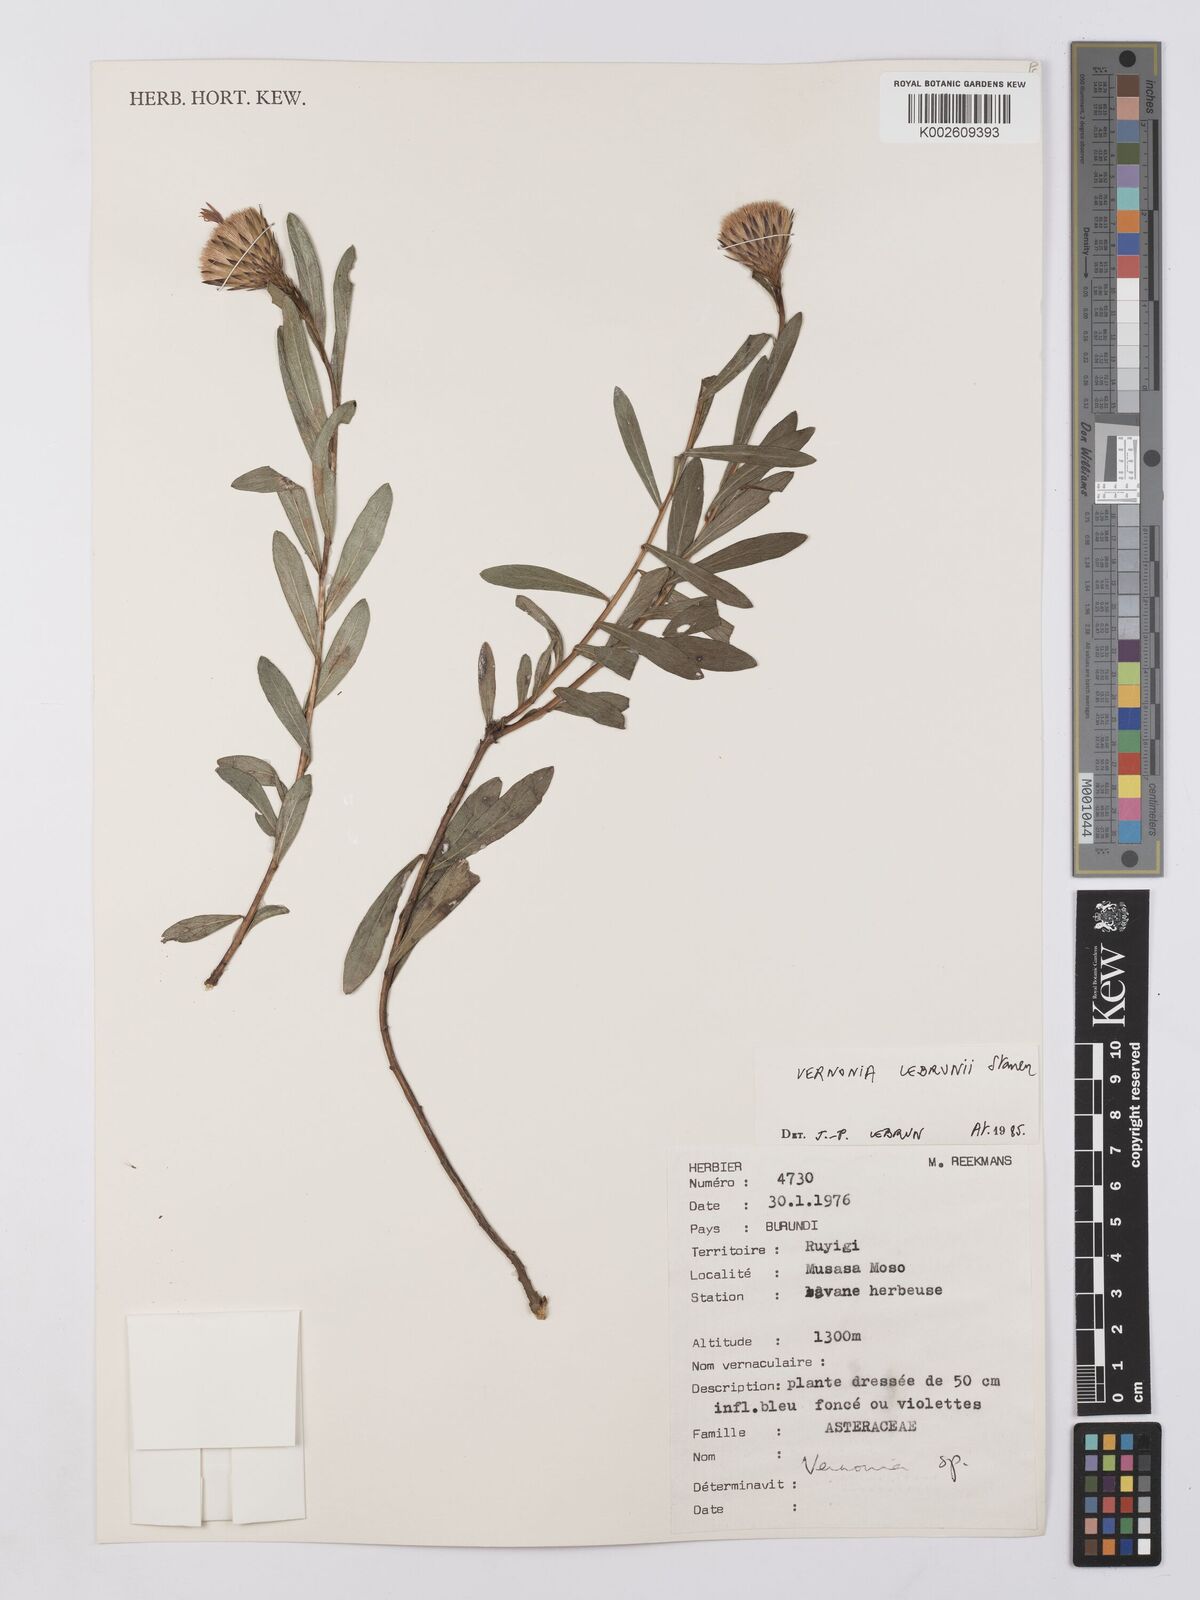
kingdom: Plantae
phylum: Tracheophyta
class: Magnoliopsida
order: Asterales
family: Asteraceae
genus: Vernonia
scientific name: Vernonia
